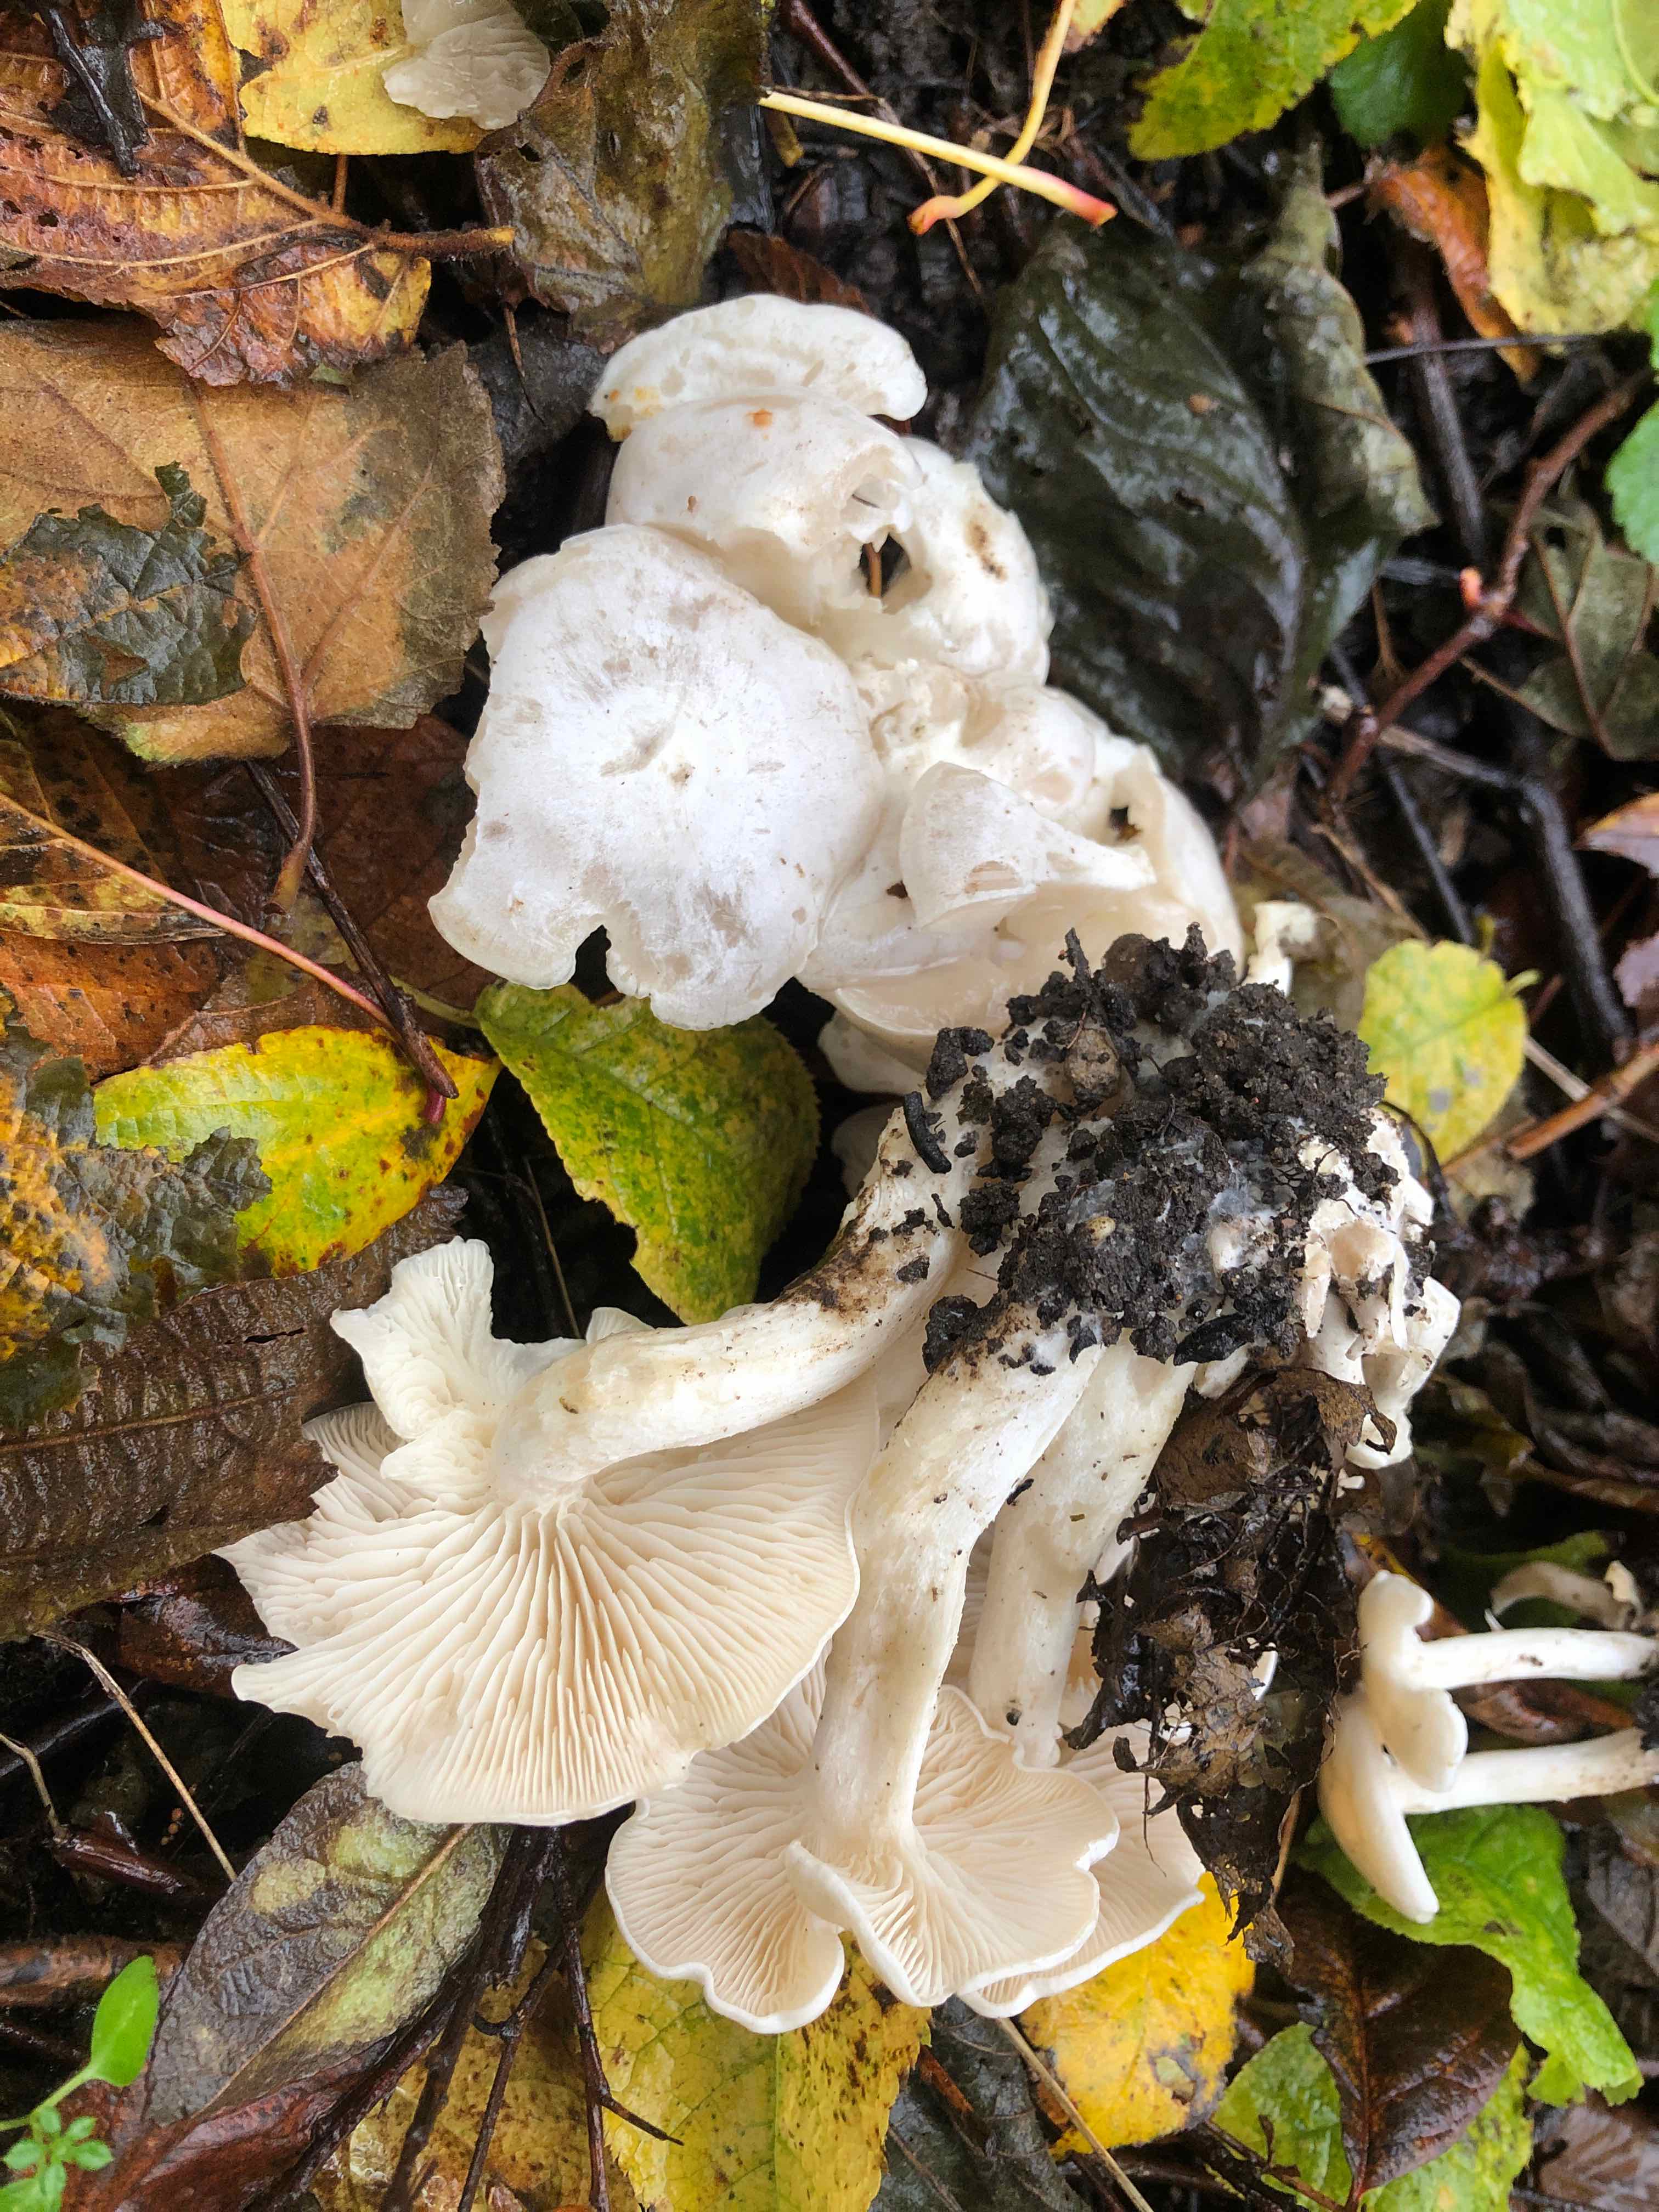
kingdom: Fungi
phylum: Basidiomycota
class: Agaricomycetes
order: Agaricales
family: Tricholomataceae
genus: Leucocybe
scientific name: Leucocybe connata
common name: knippe-tragthat
